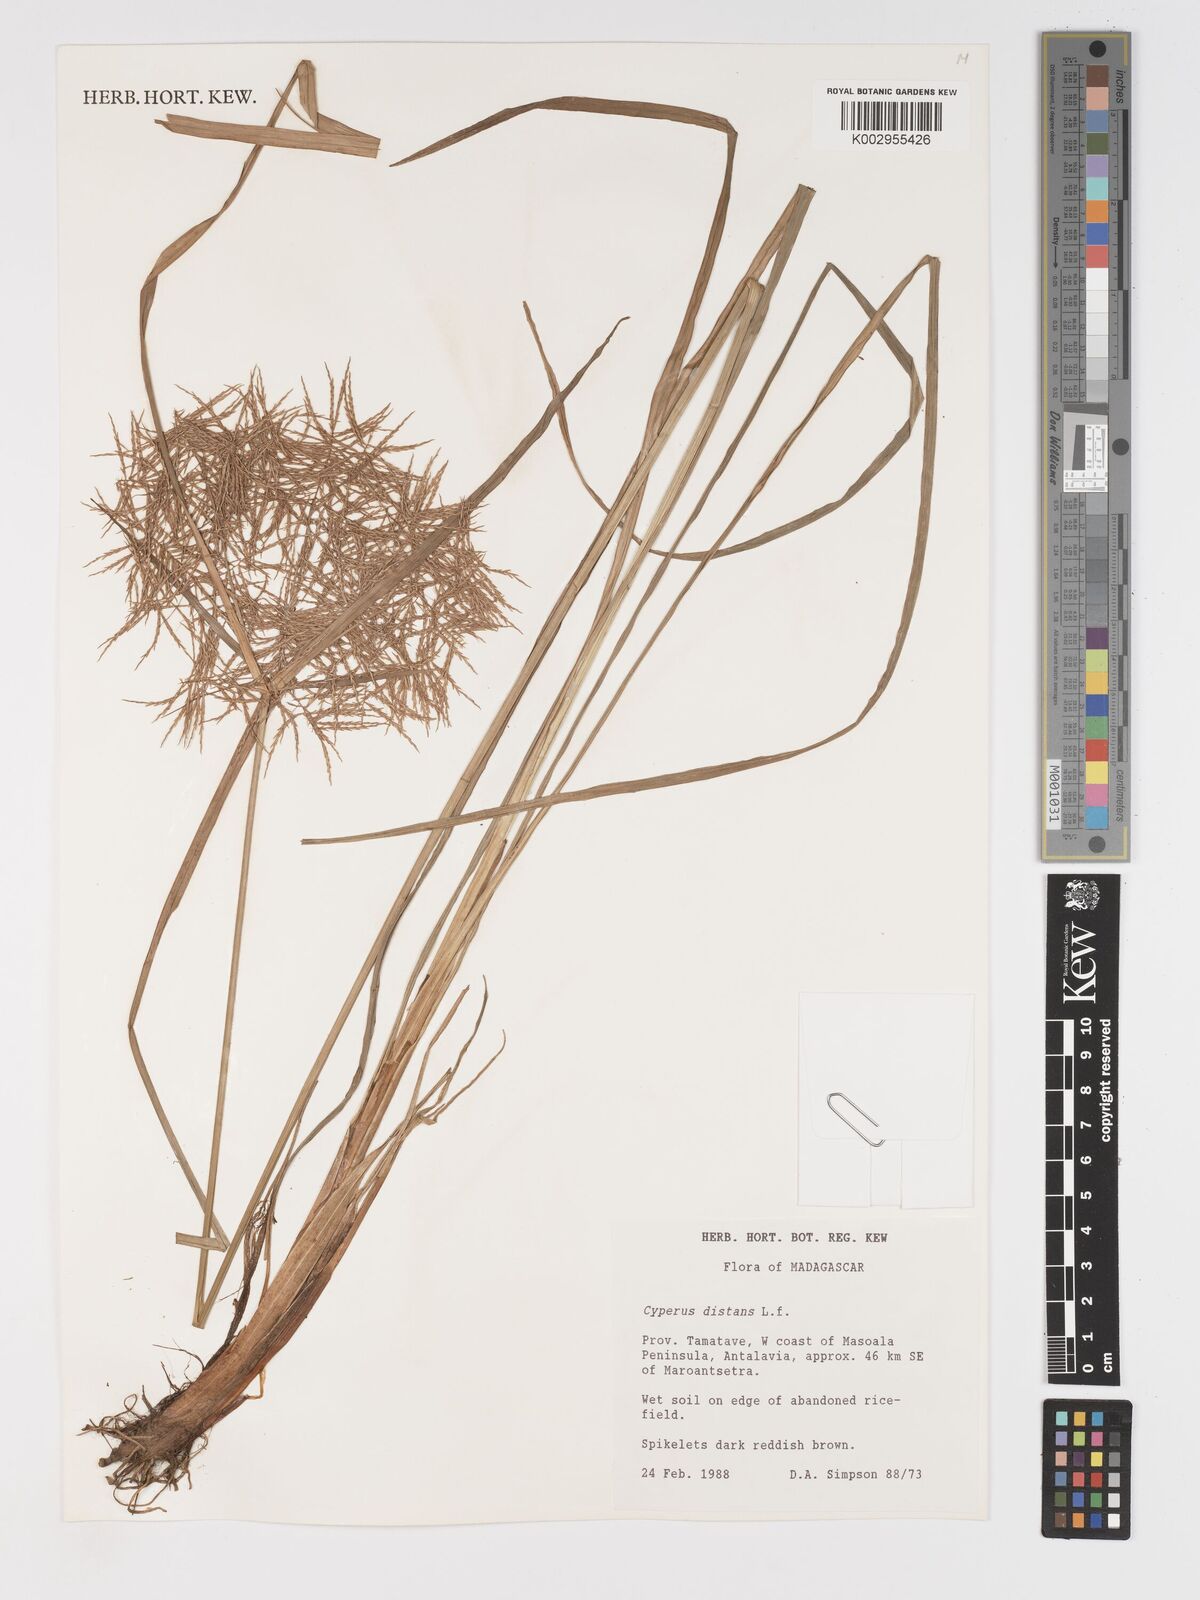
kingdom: Plantae
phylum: Tracheophyta
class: Liliopsida
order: Poales
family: Cyperaceae
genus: Cyperus
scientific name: Cyperus distans
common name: Slender cyperus
